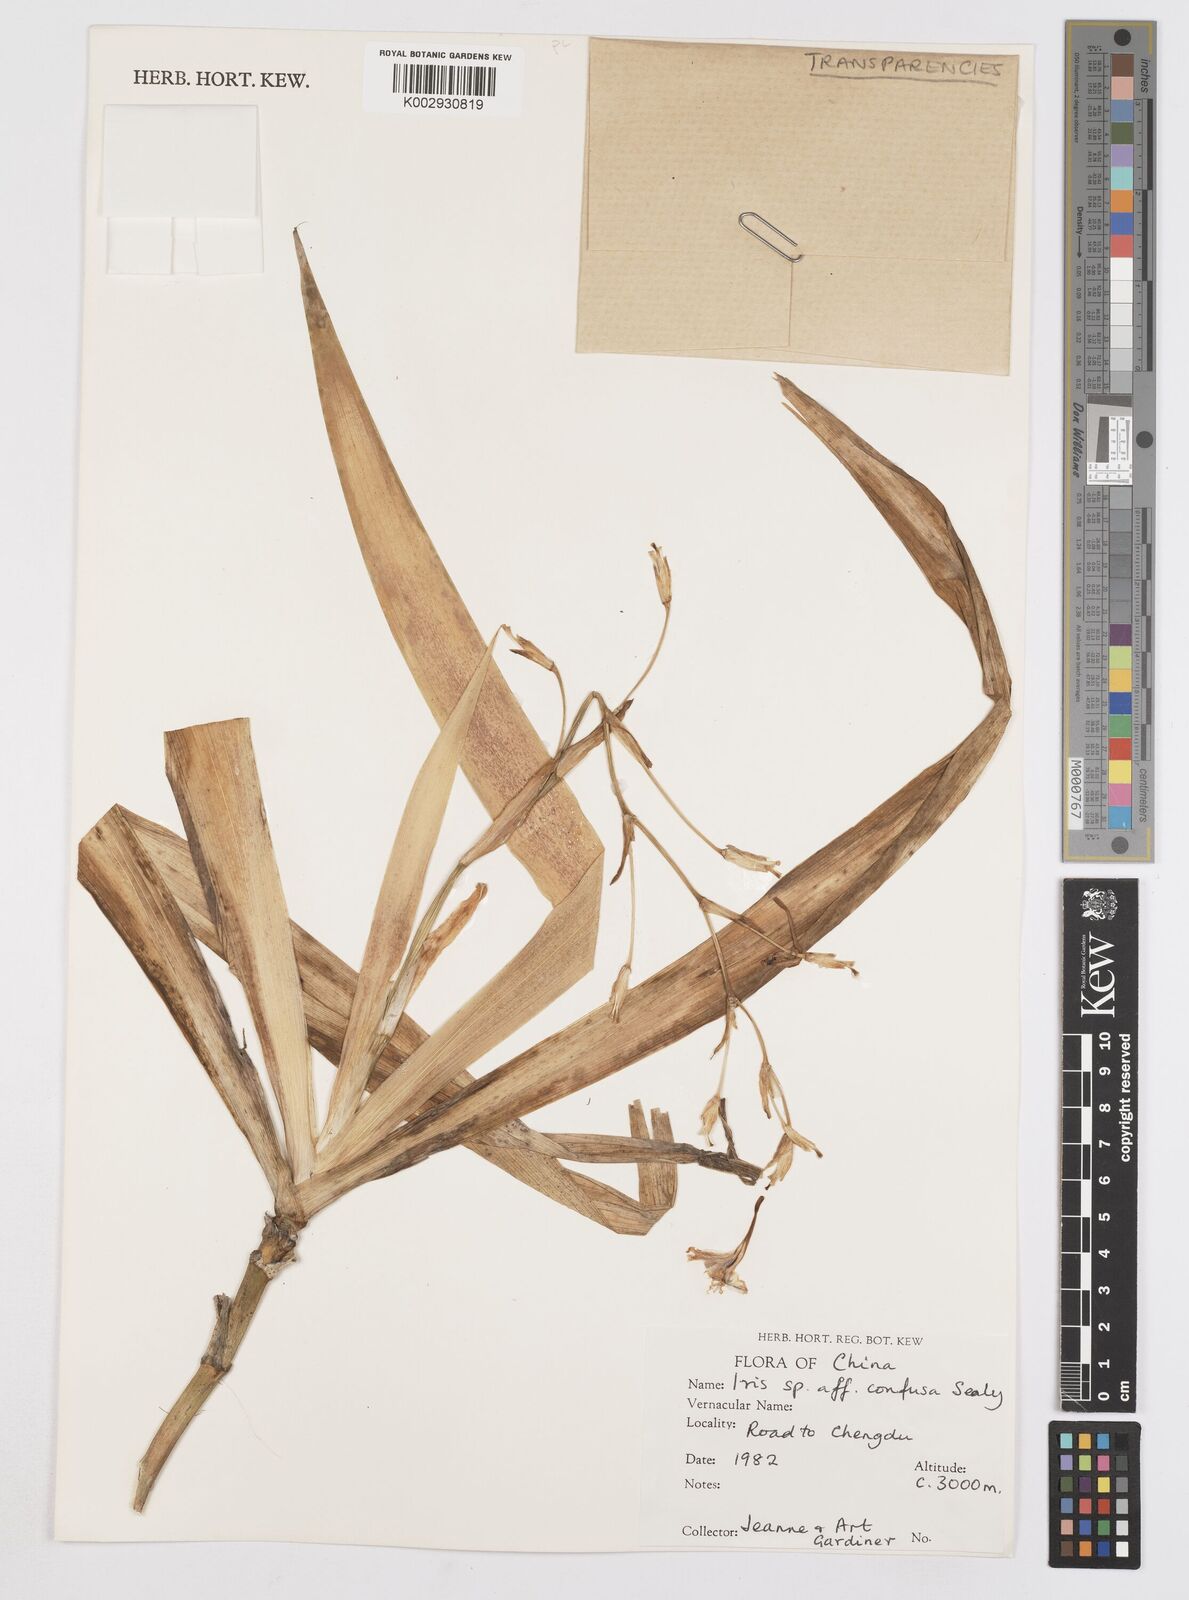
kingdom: Plantae
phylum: Tracheophyta
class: Liliopsida
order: Asparagales
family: Iridaceae
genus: Iris
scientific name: Iris confusa
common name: Flat bamboo-orchid
